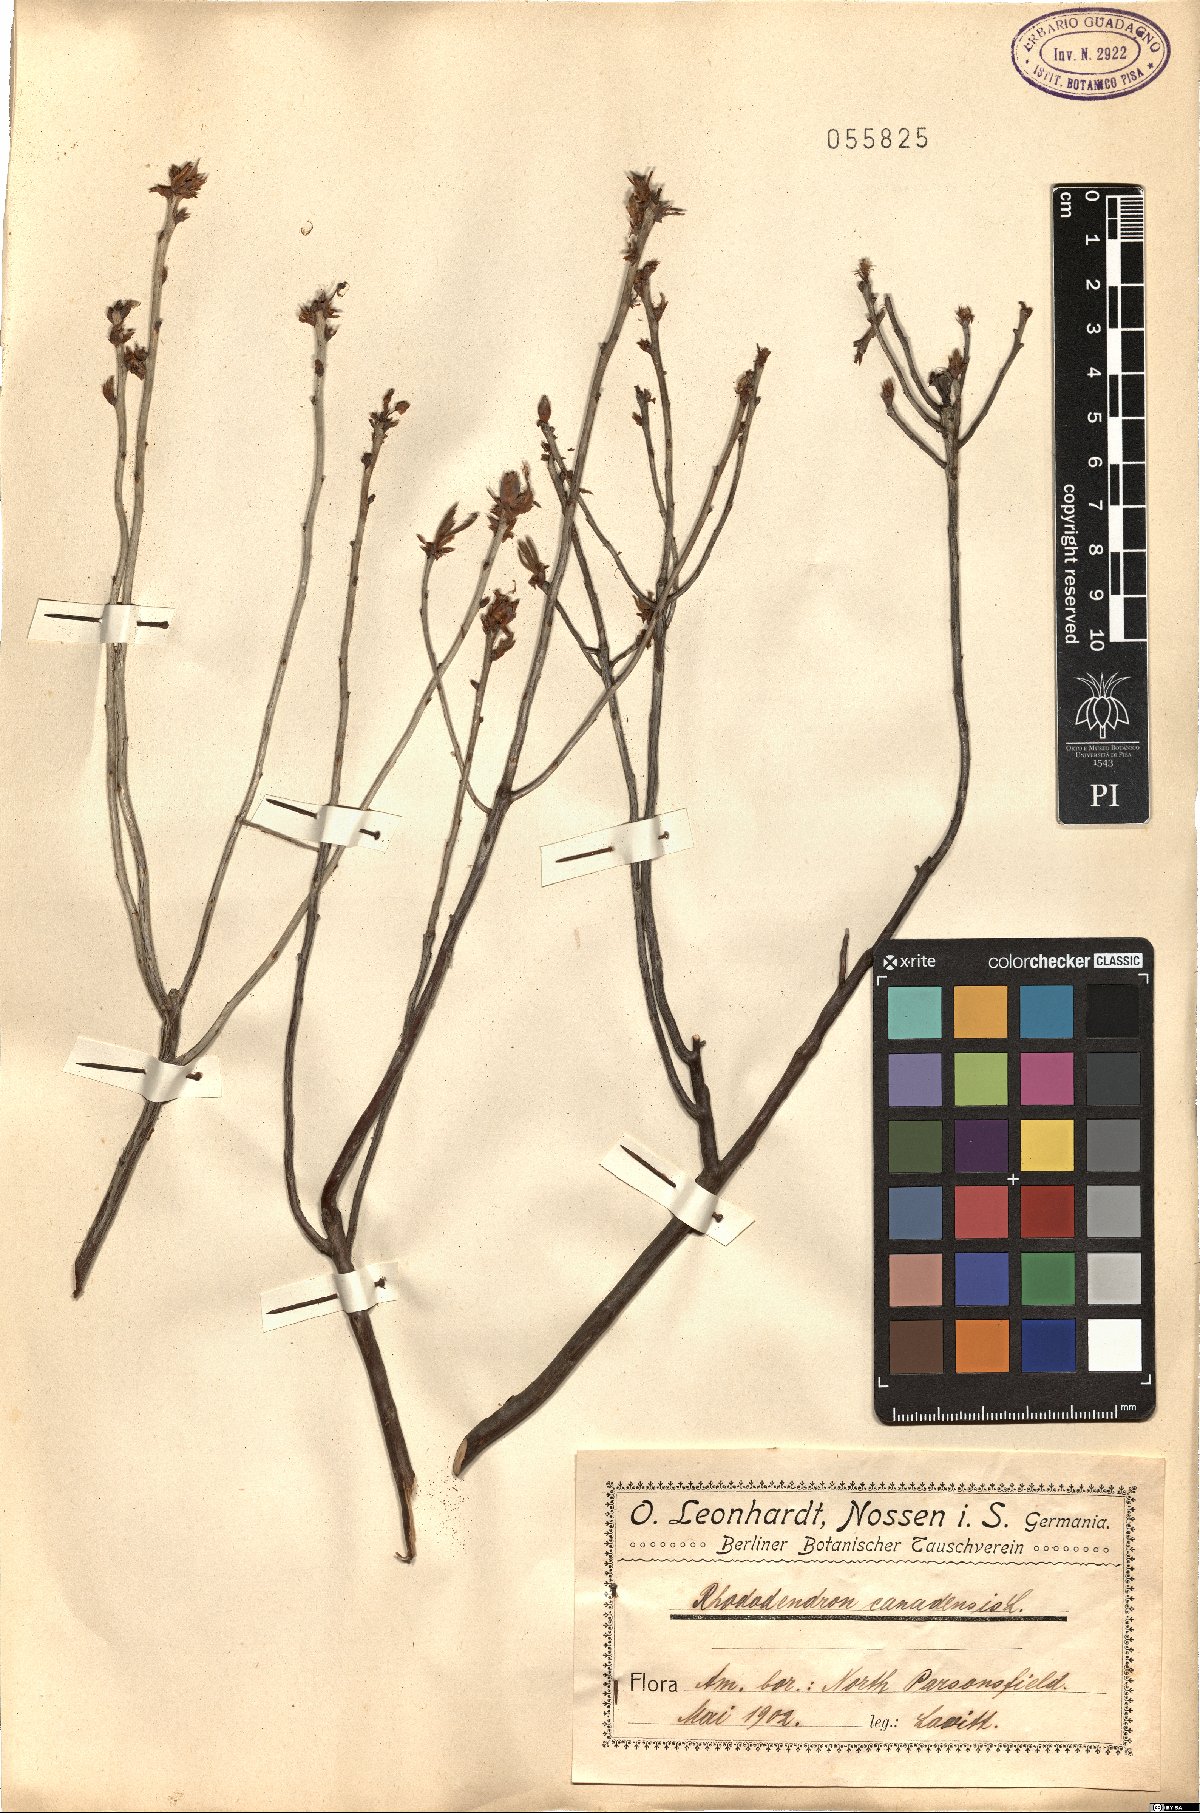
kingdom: Plantae
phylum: Tracheophyta
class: Magnoliopsida
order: Ericales
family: Ericaceae
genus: Rhododendron
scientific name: Rhododendron canadense
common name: Rhodora
